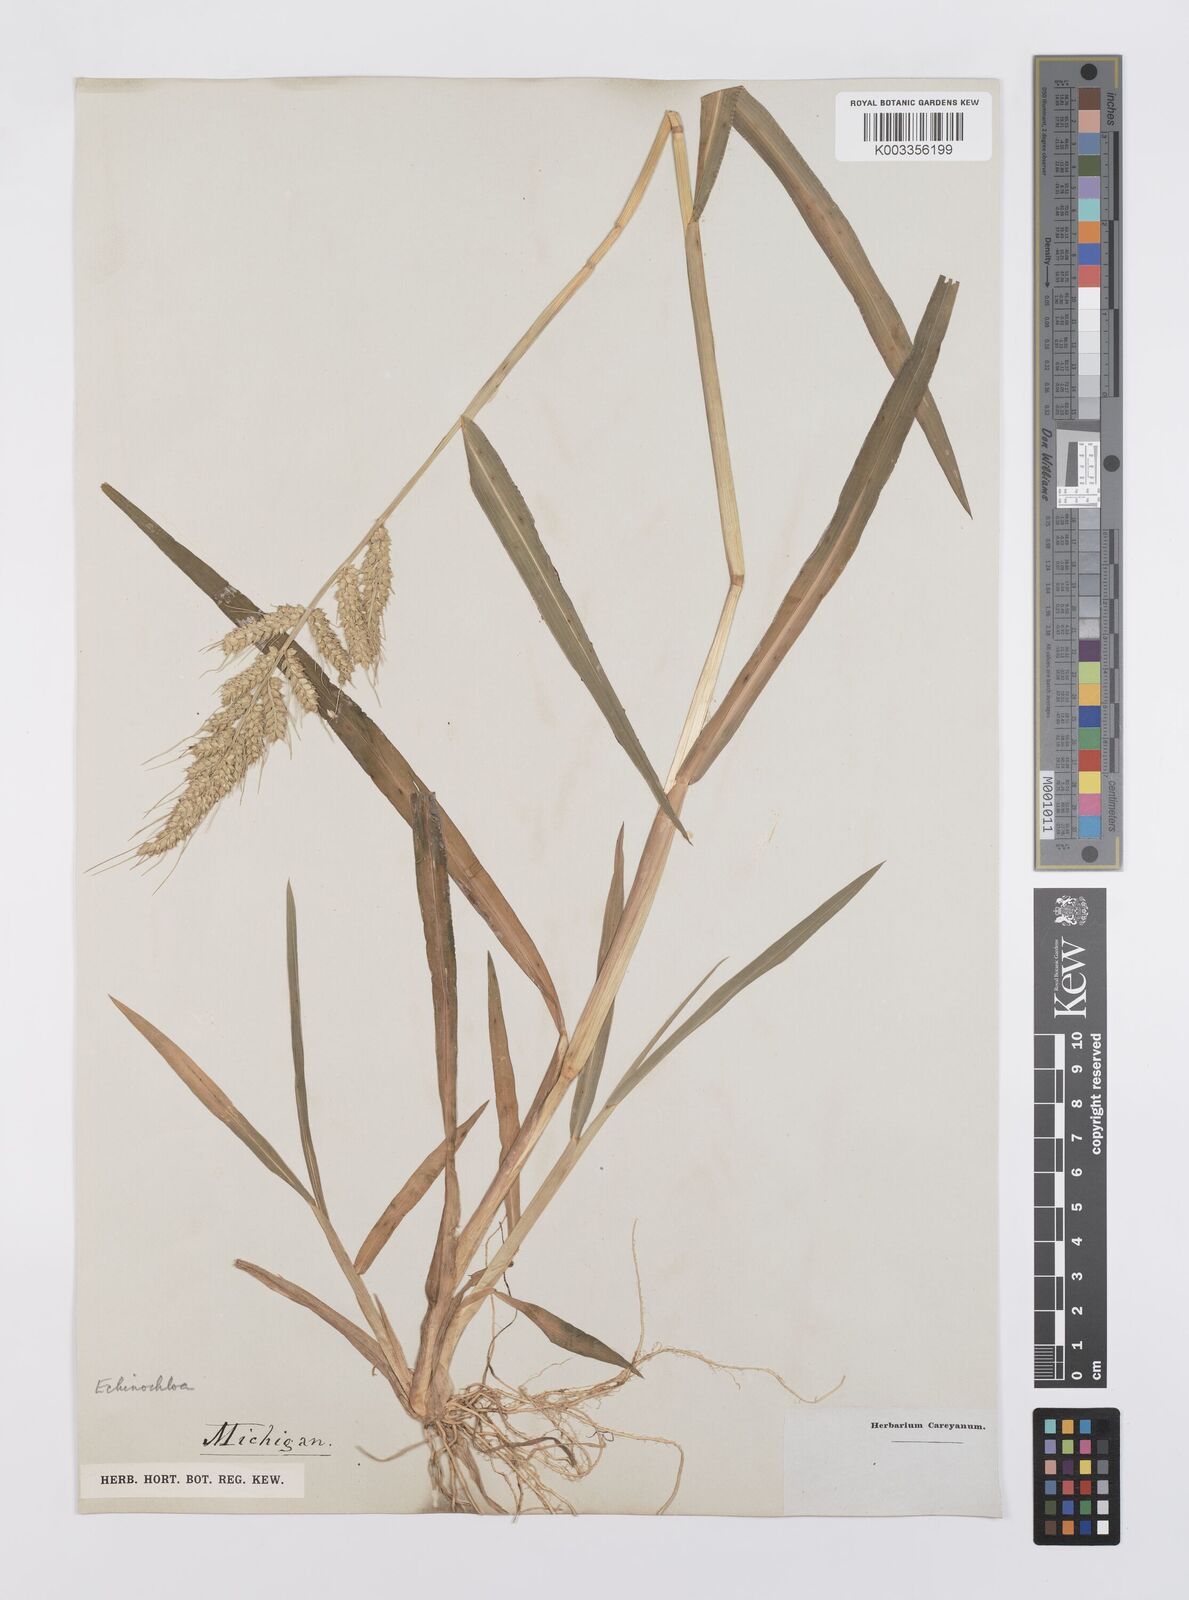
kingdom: Plantae
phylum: Tracheophyta
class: Liliopsida
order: Poales
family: Poaceae
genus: Echinochloa
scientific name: Echinochloa crus-galli
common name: Cockspur
